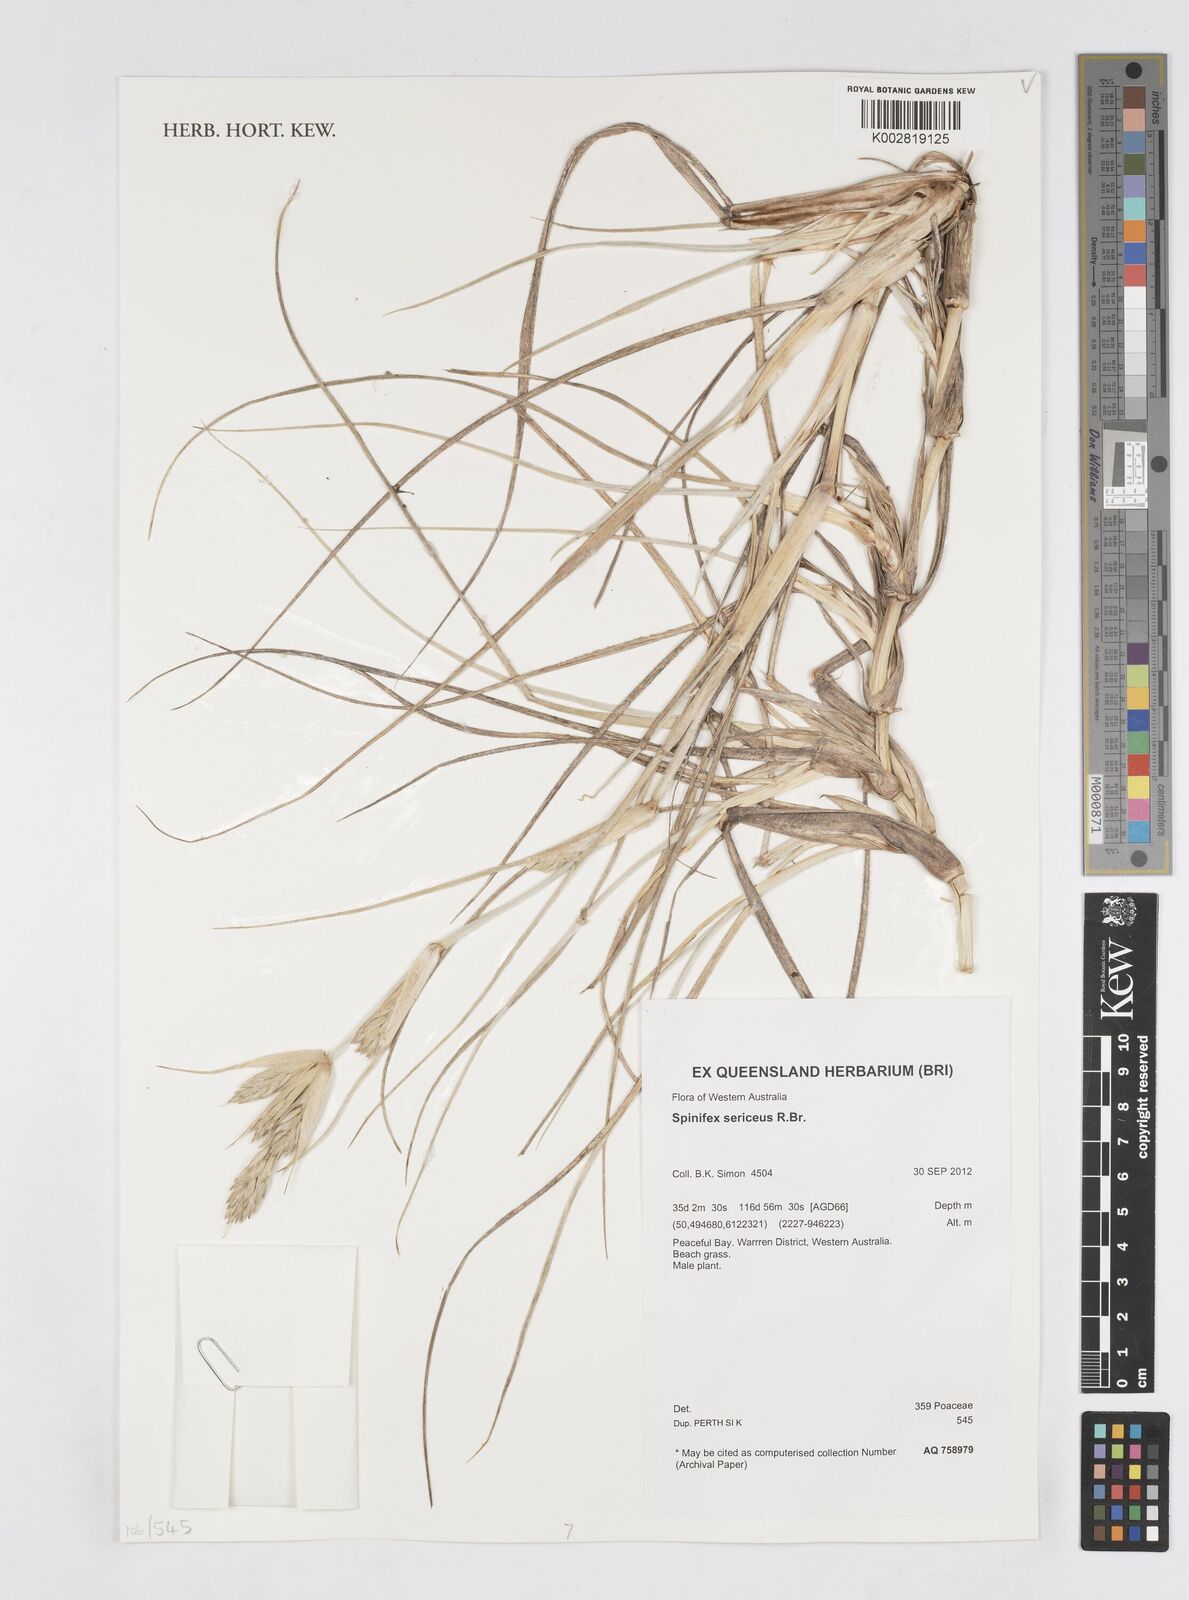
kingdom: Plantae
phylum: Tracheophyta
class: Liliopsida
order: Poales
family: Poaceae
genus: Spinifex
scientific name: Spinifex sericeus
